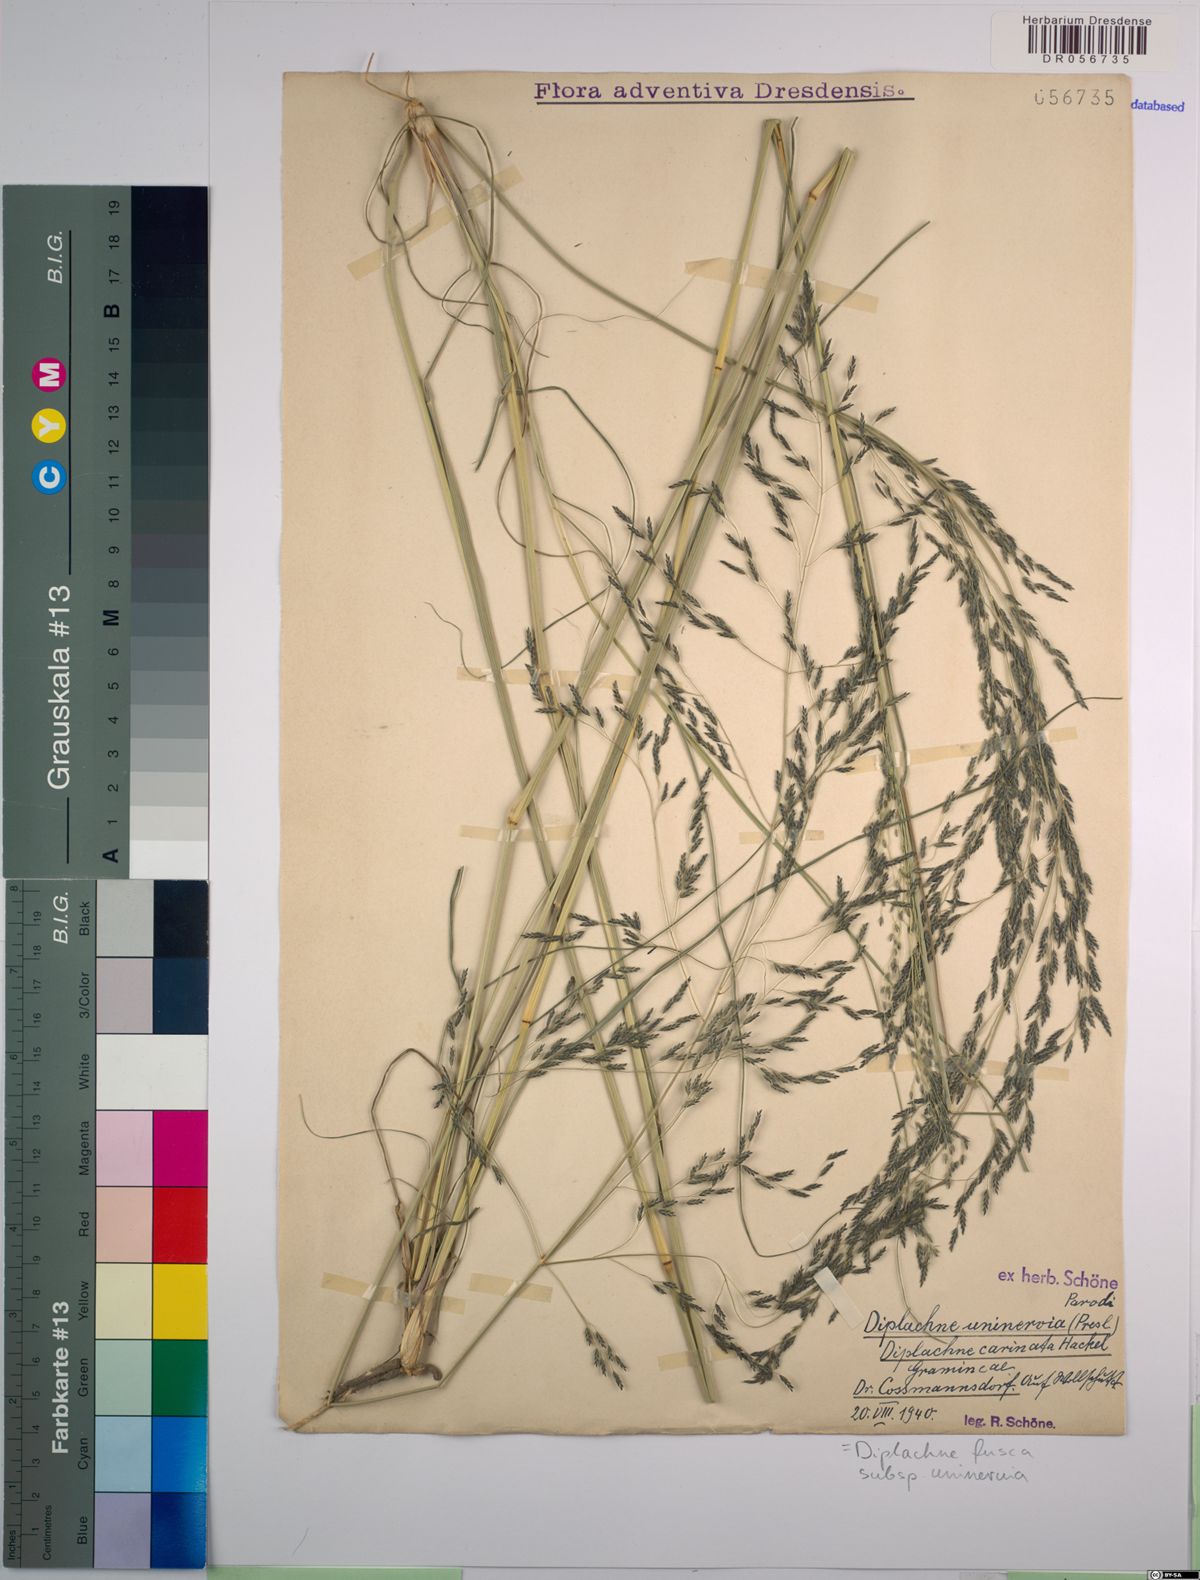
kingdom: Plantae
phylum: Tracheophyta
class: Liliopsida
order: Poales
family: Poaceae
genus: Diplachne
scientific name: Diplachne fusca
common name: Brown beetle grass
